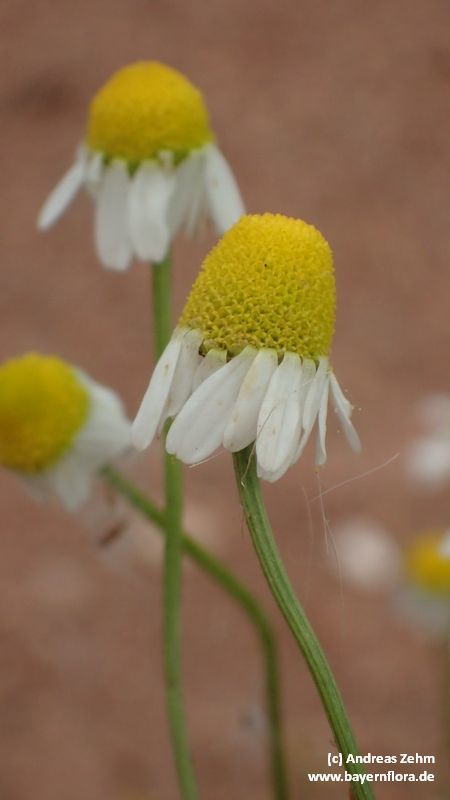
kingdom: Plantae
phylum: Tracheophyta
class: Magnoliopsida
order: Asterales
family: Asteraceae
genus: Matricaria
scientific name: Matricaria chamomilla
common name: Scented mayweed
